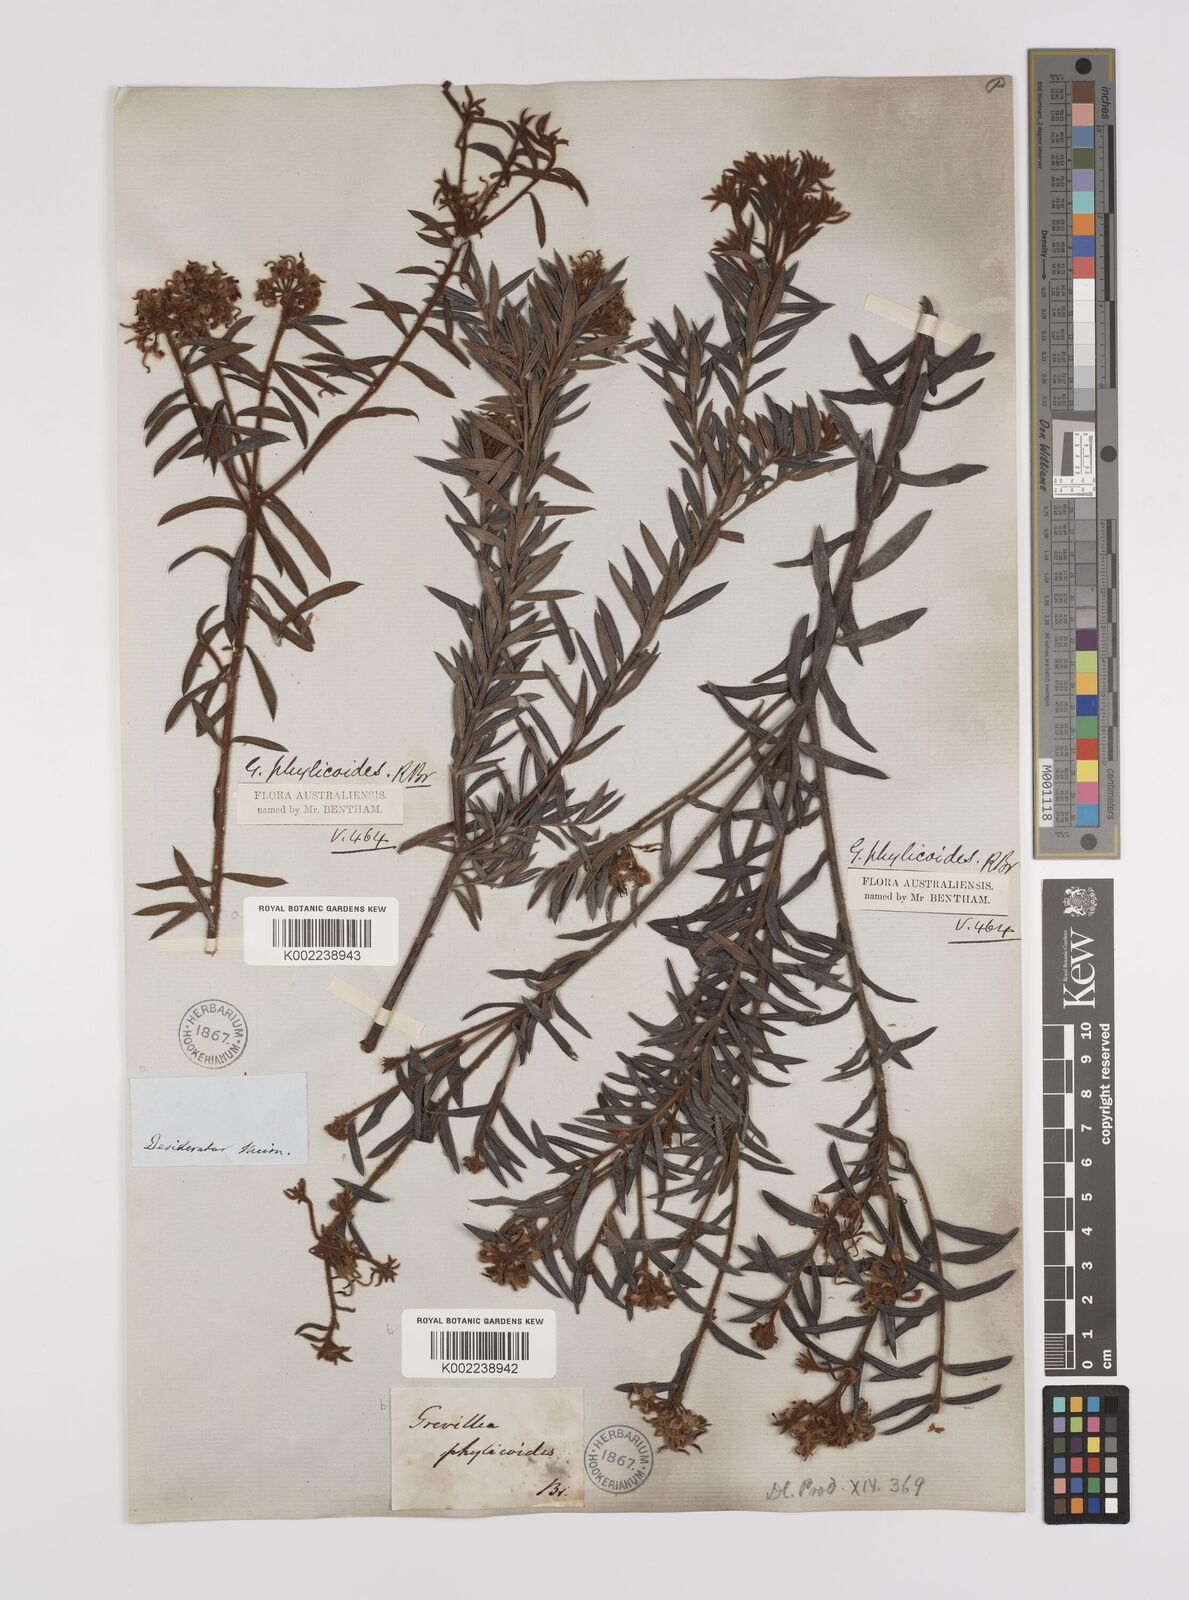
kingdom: Plantae
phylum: Tracheophyta
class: Magnoliopsida
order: Proteales
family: Proteaceae
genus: Grevillea
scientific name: Grevillea phylicoides
